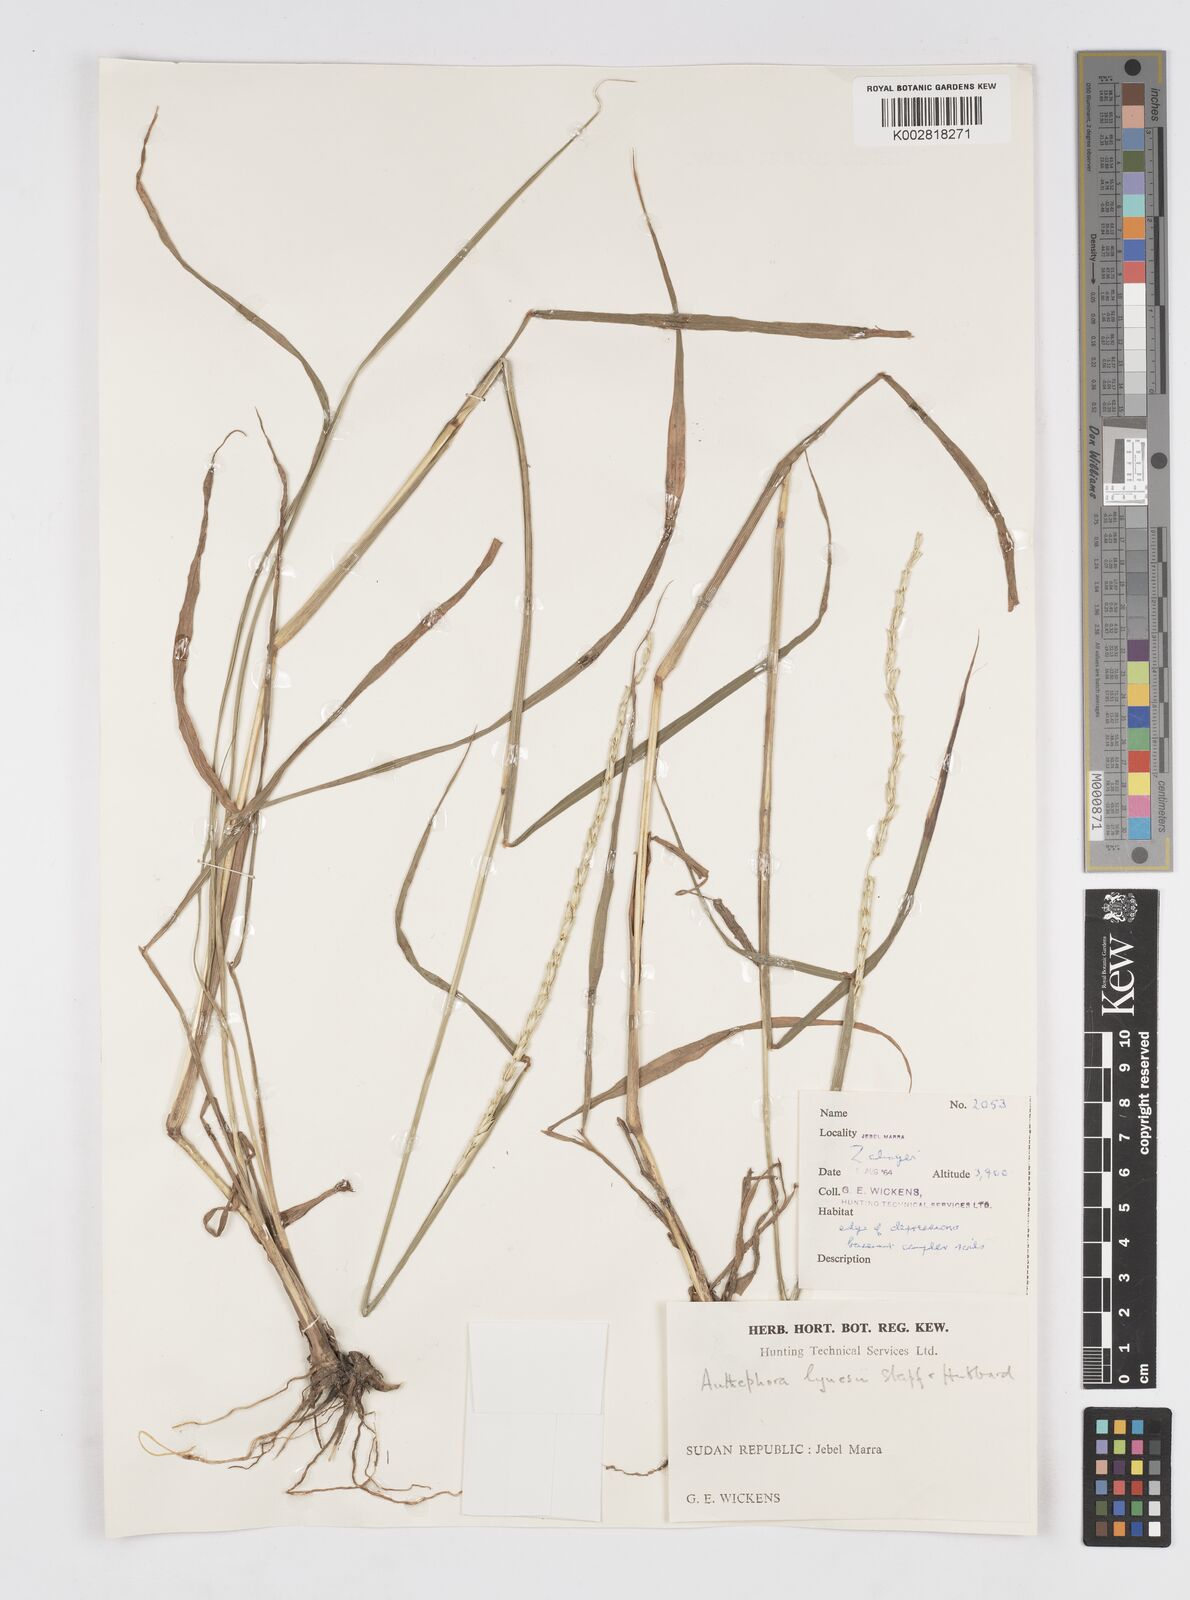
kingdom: Plantae
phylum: Tracheophyta
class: Liliopsida
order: Poales
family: Poaceae
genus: Anthephora
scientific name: Anthephora nigritana
